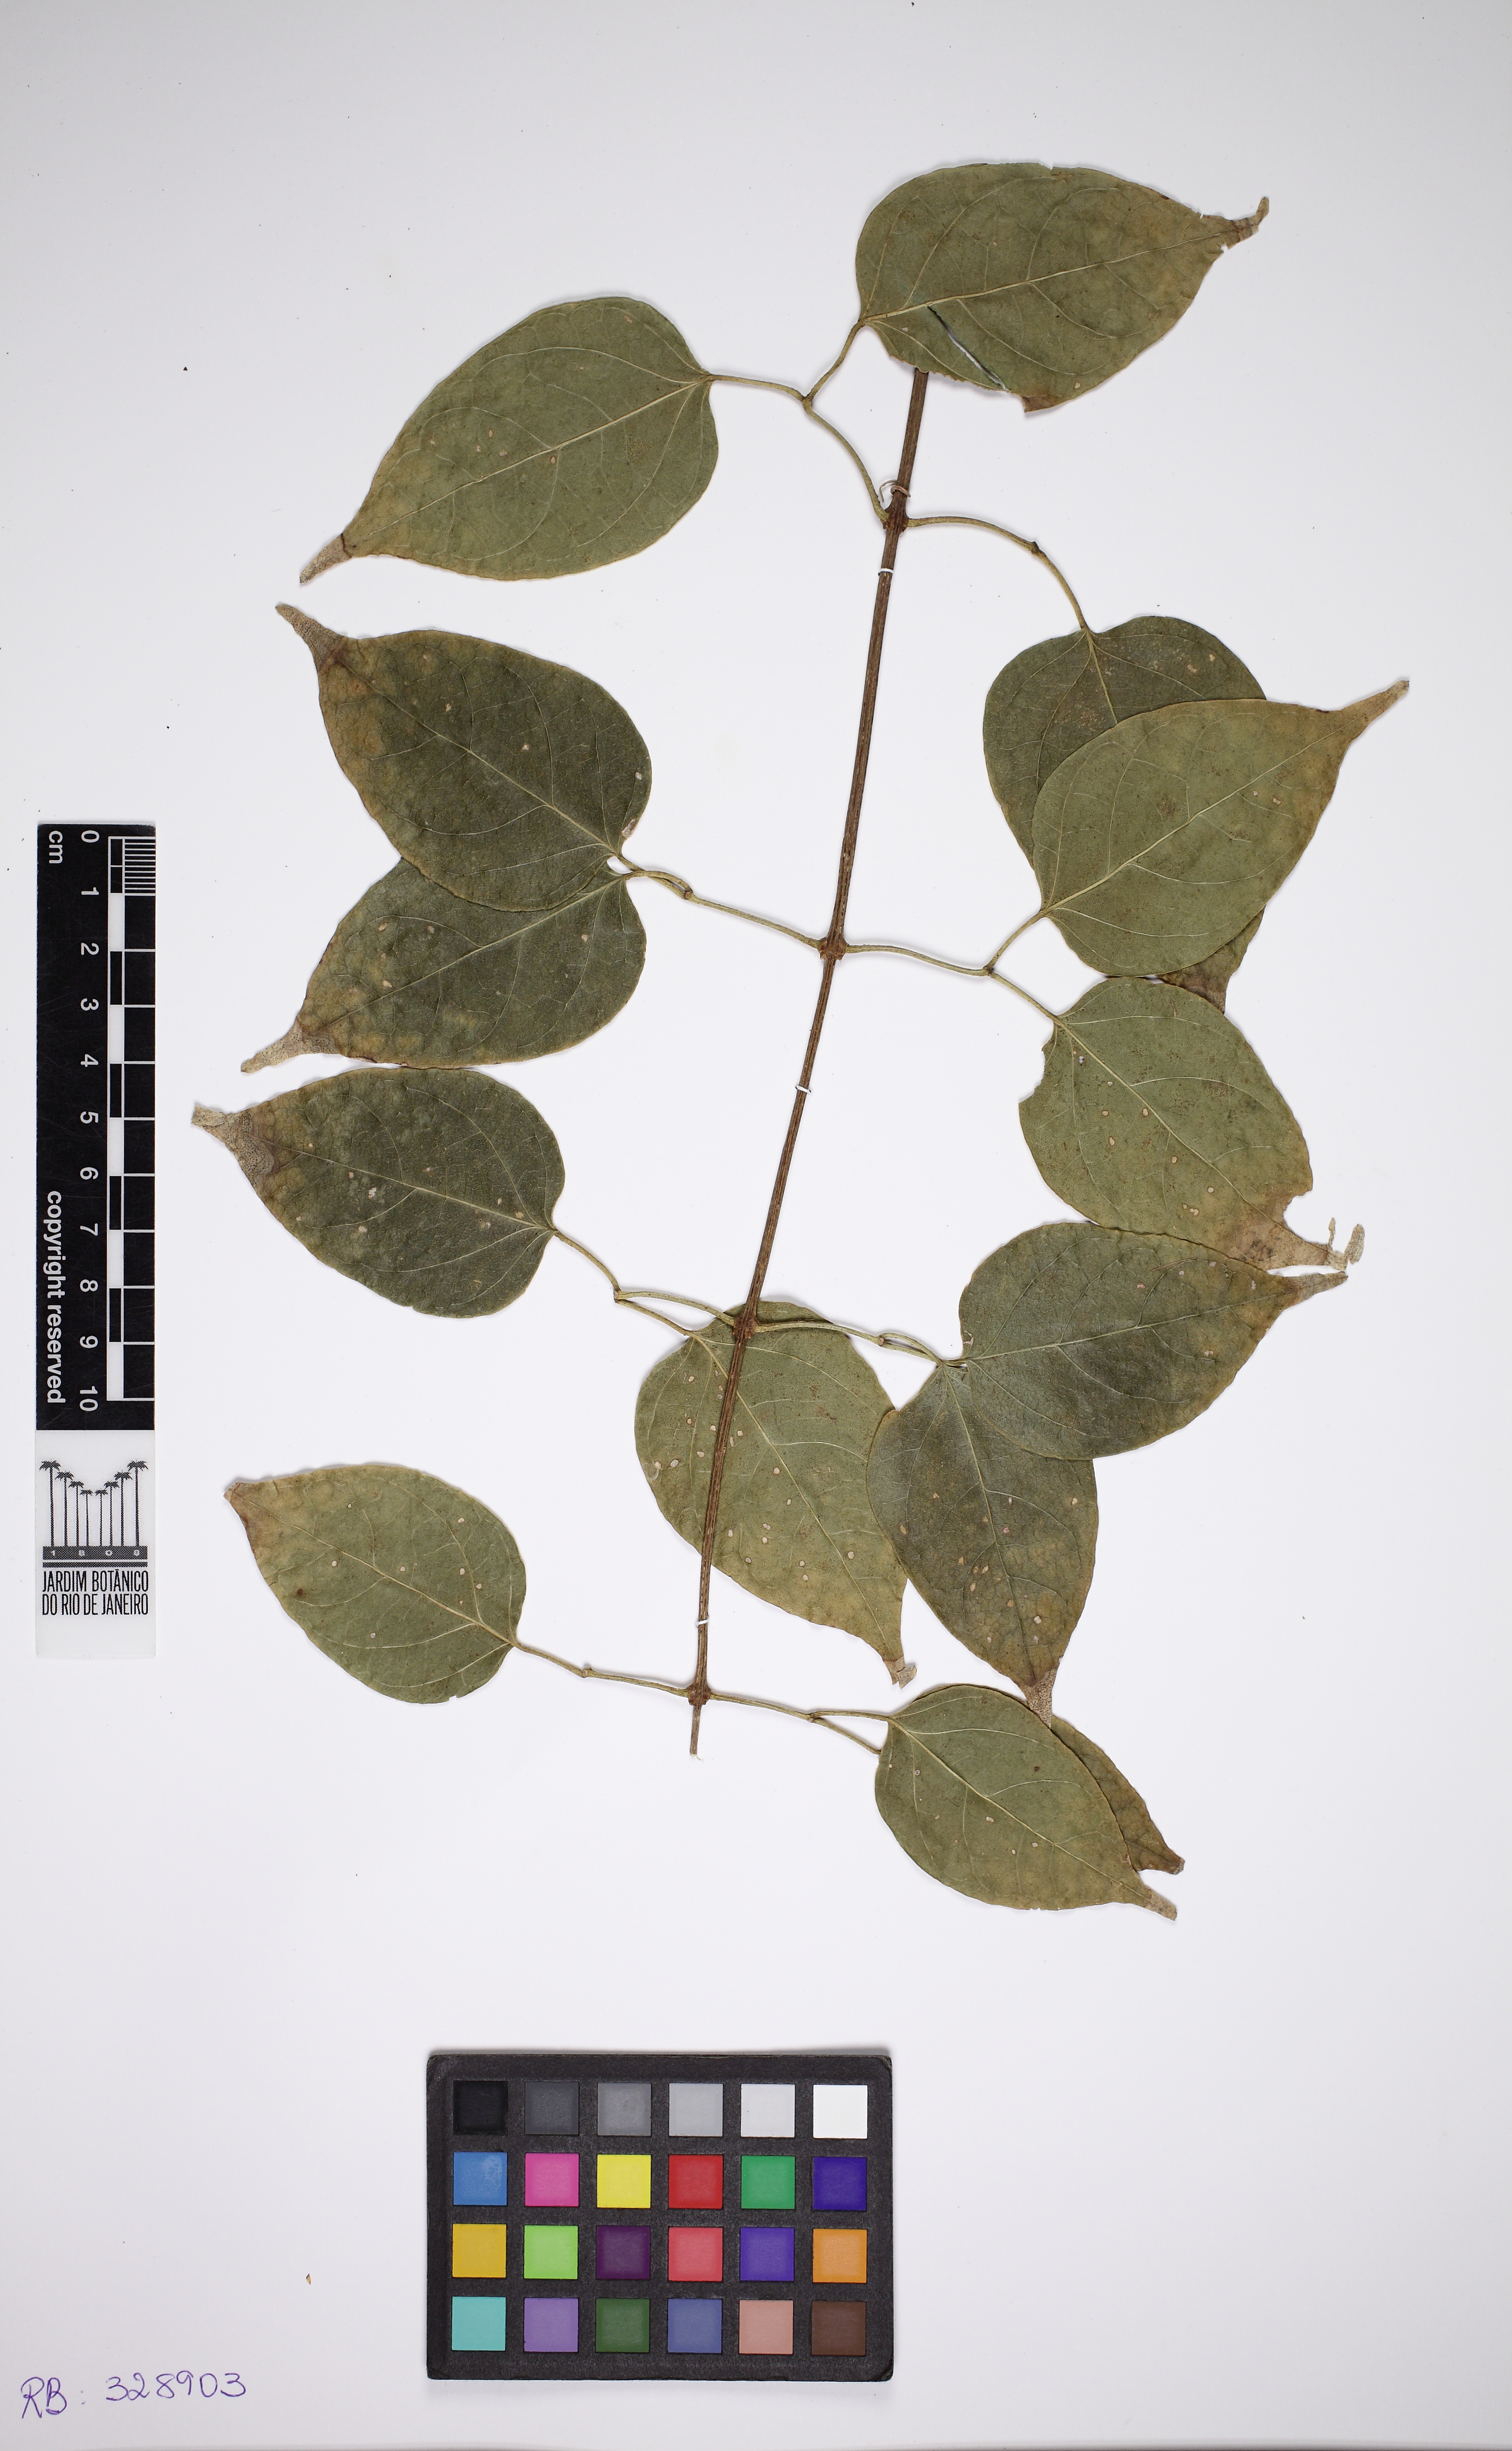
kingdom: Plantae
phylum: Tracheophyta
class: Magnoliopsida
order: Lamiales
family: Bignoniaceae
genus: Pyrostegia
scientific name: Pyrostegia venusta
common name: Flamevine
